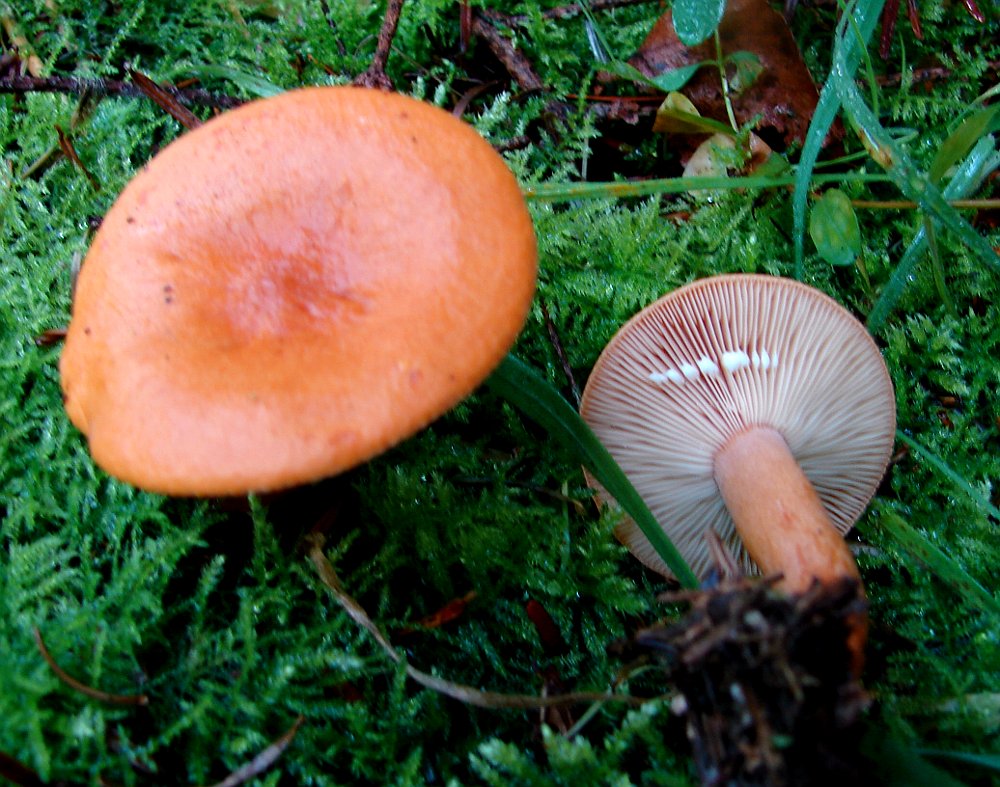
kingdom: Fungi
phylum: Basidiomycota
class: Agaricomycetes
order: Russulales
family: Russulaceae
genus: Lactarius
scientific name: Lactarius aurantiacus
